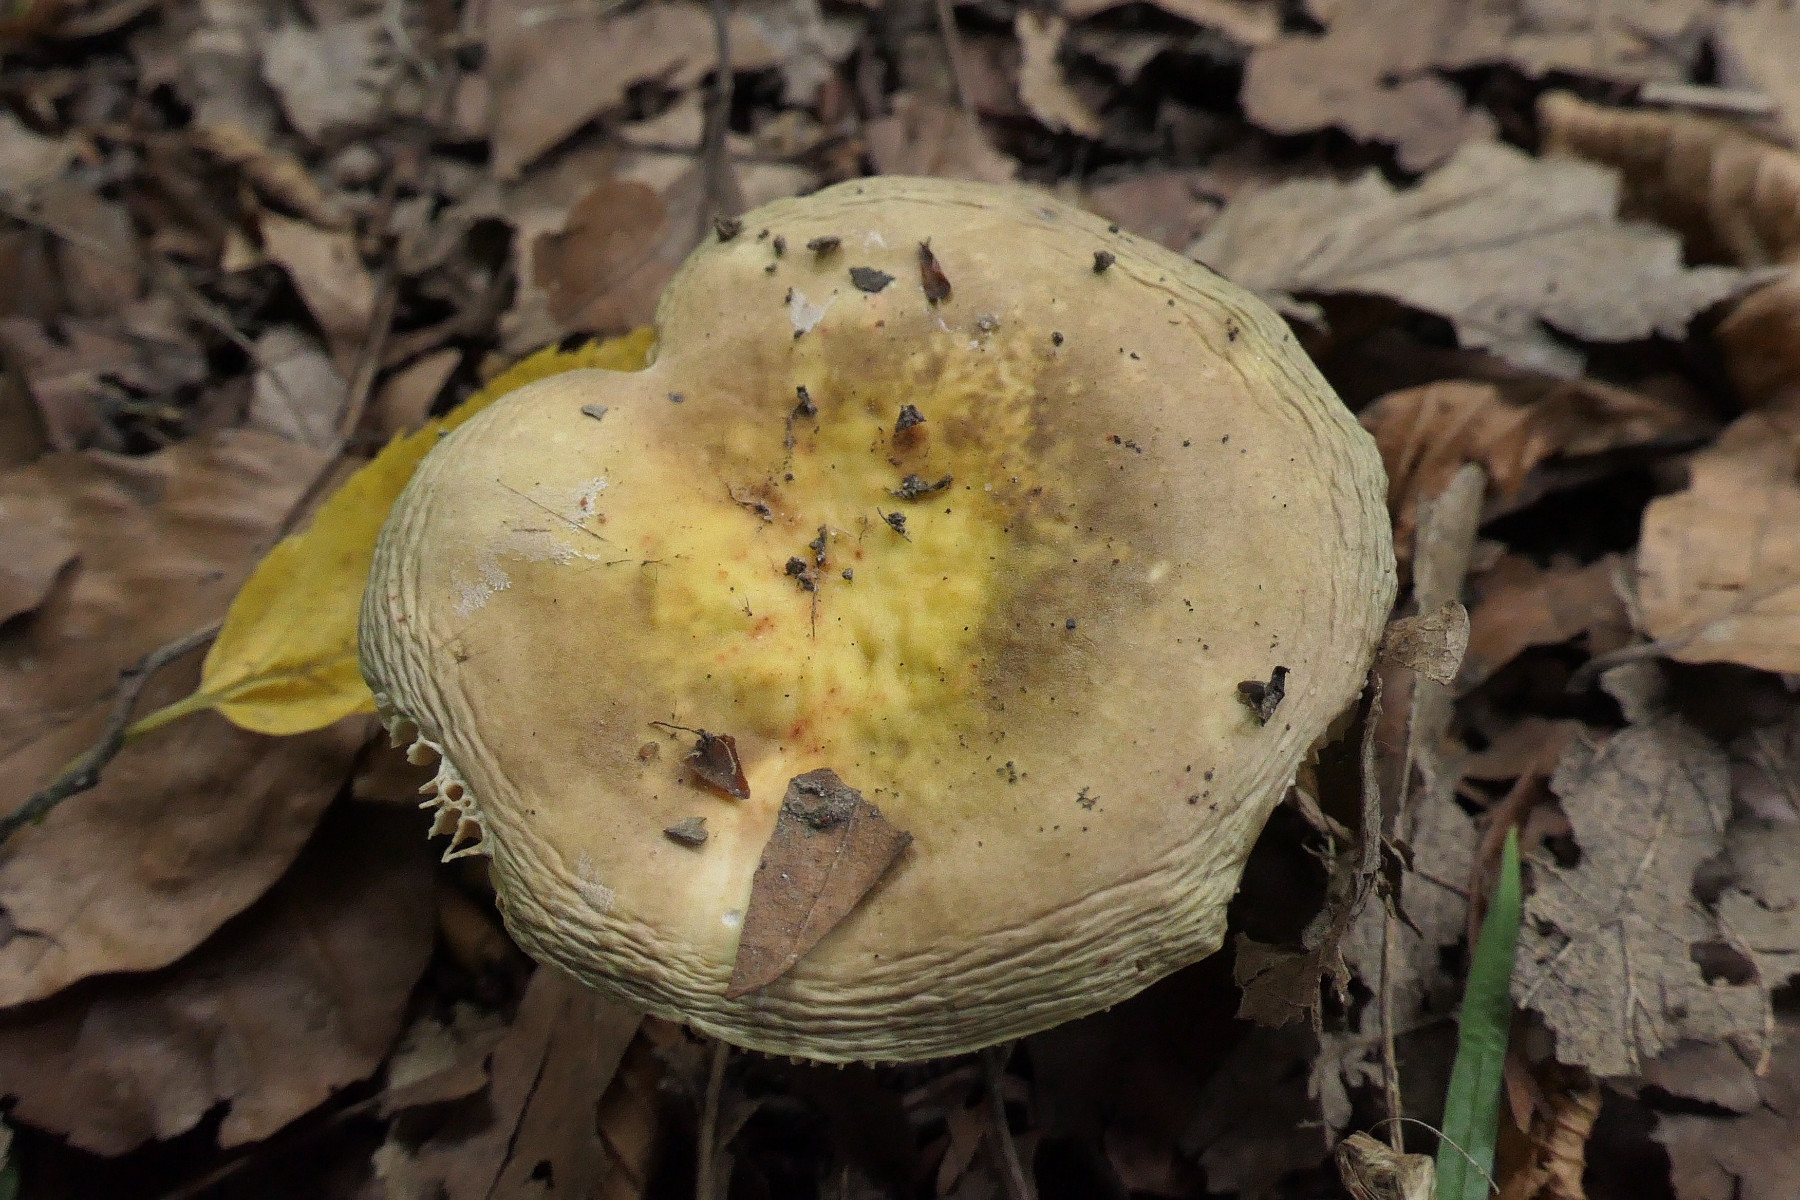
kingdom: Fungi
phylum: Basidiomycota
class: Agaricomycetes
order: Russulales
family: Russulaceae
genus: Russula
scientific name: Russula carpini
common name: avnbøg-skørhat
